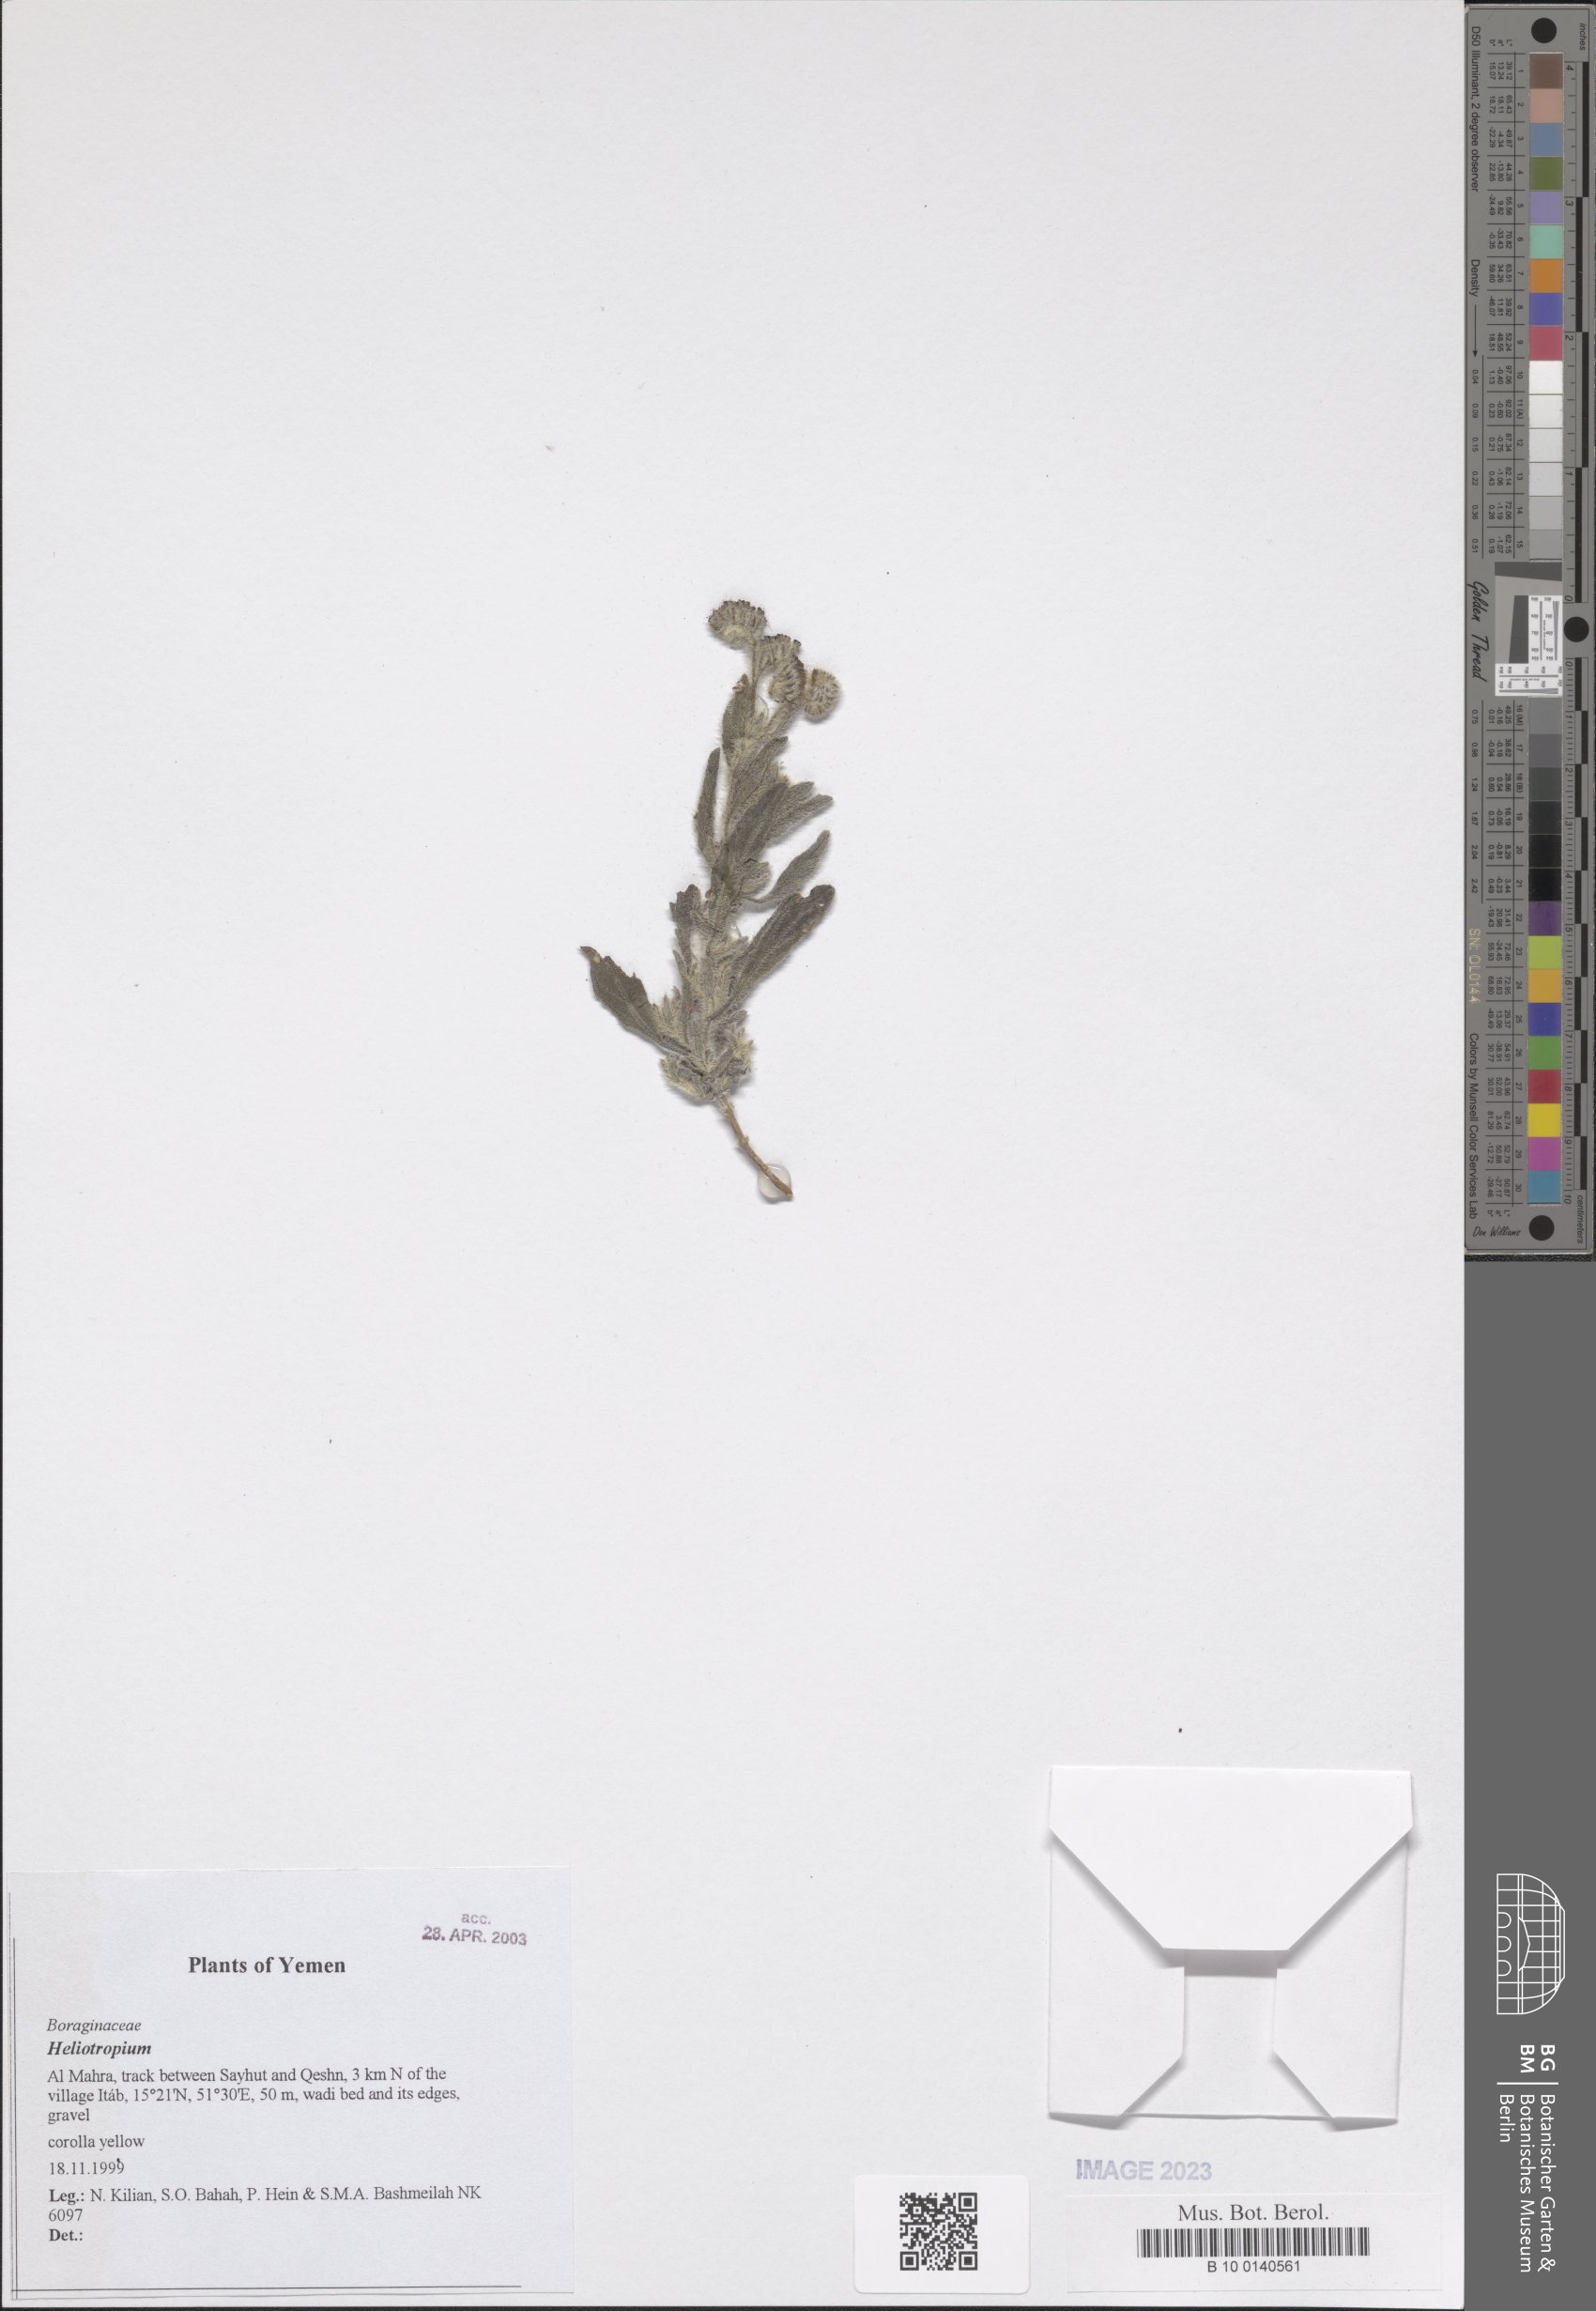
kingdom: Plantae
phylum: Tracheophyta
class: Magnoliopsida
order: Boraginales
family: Heliotropiaceae
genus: Heliotropium
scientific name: Heliotropium
